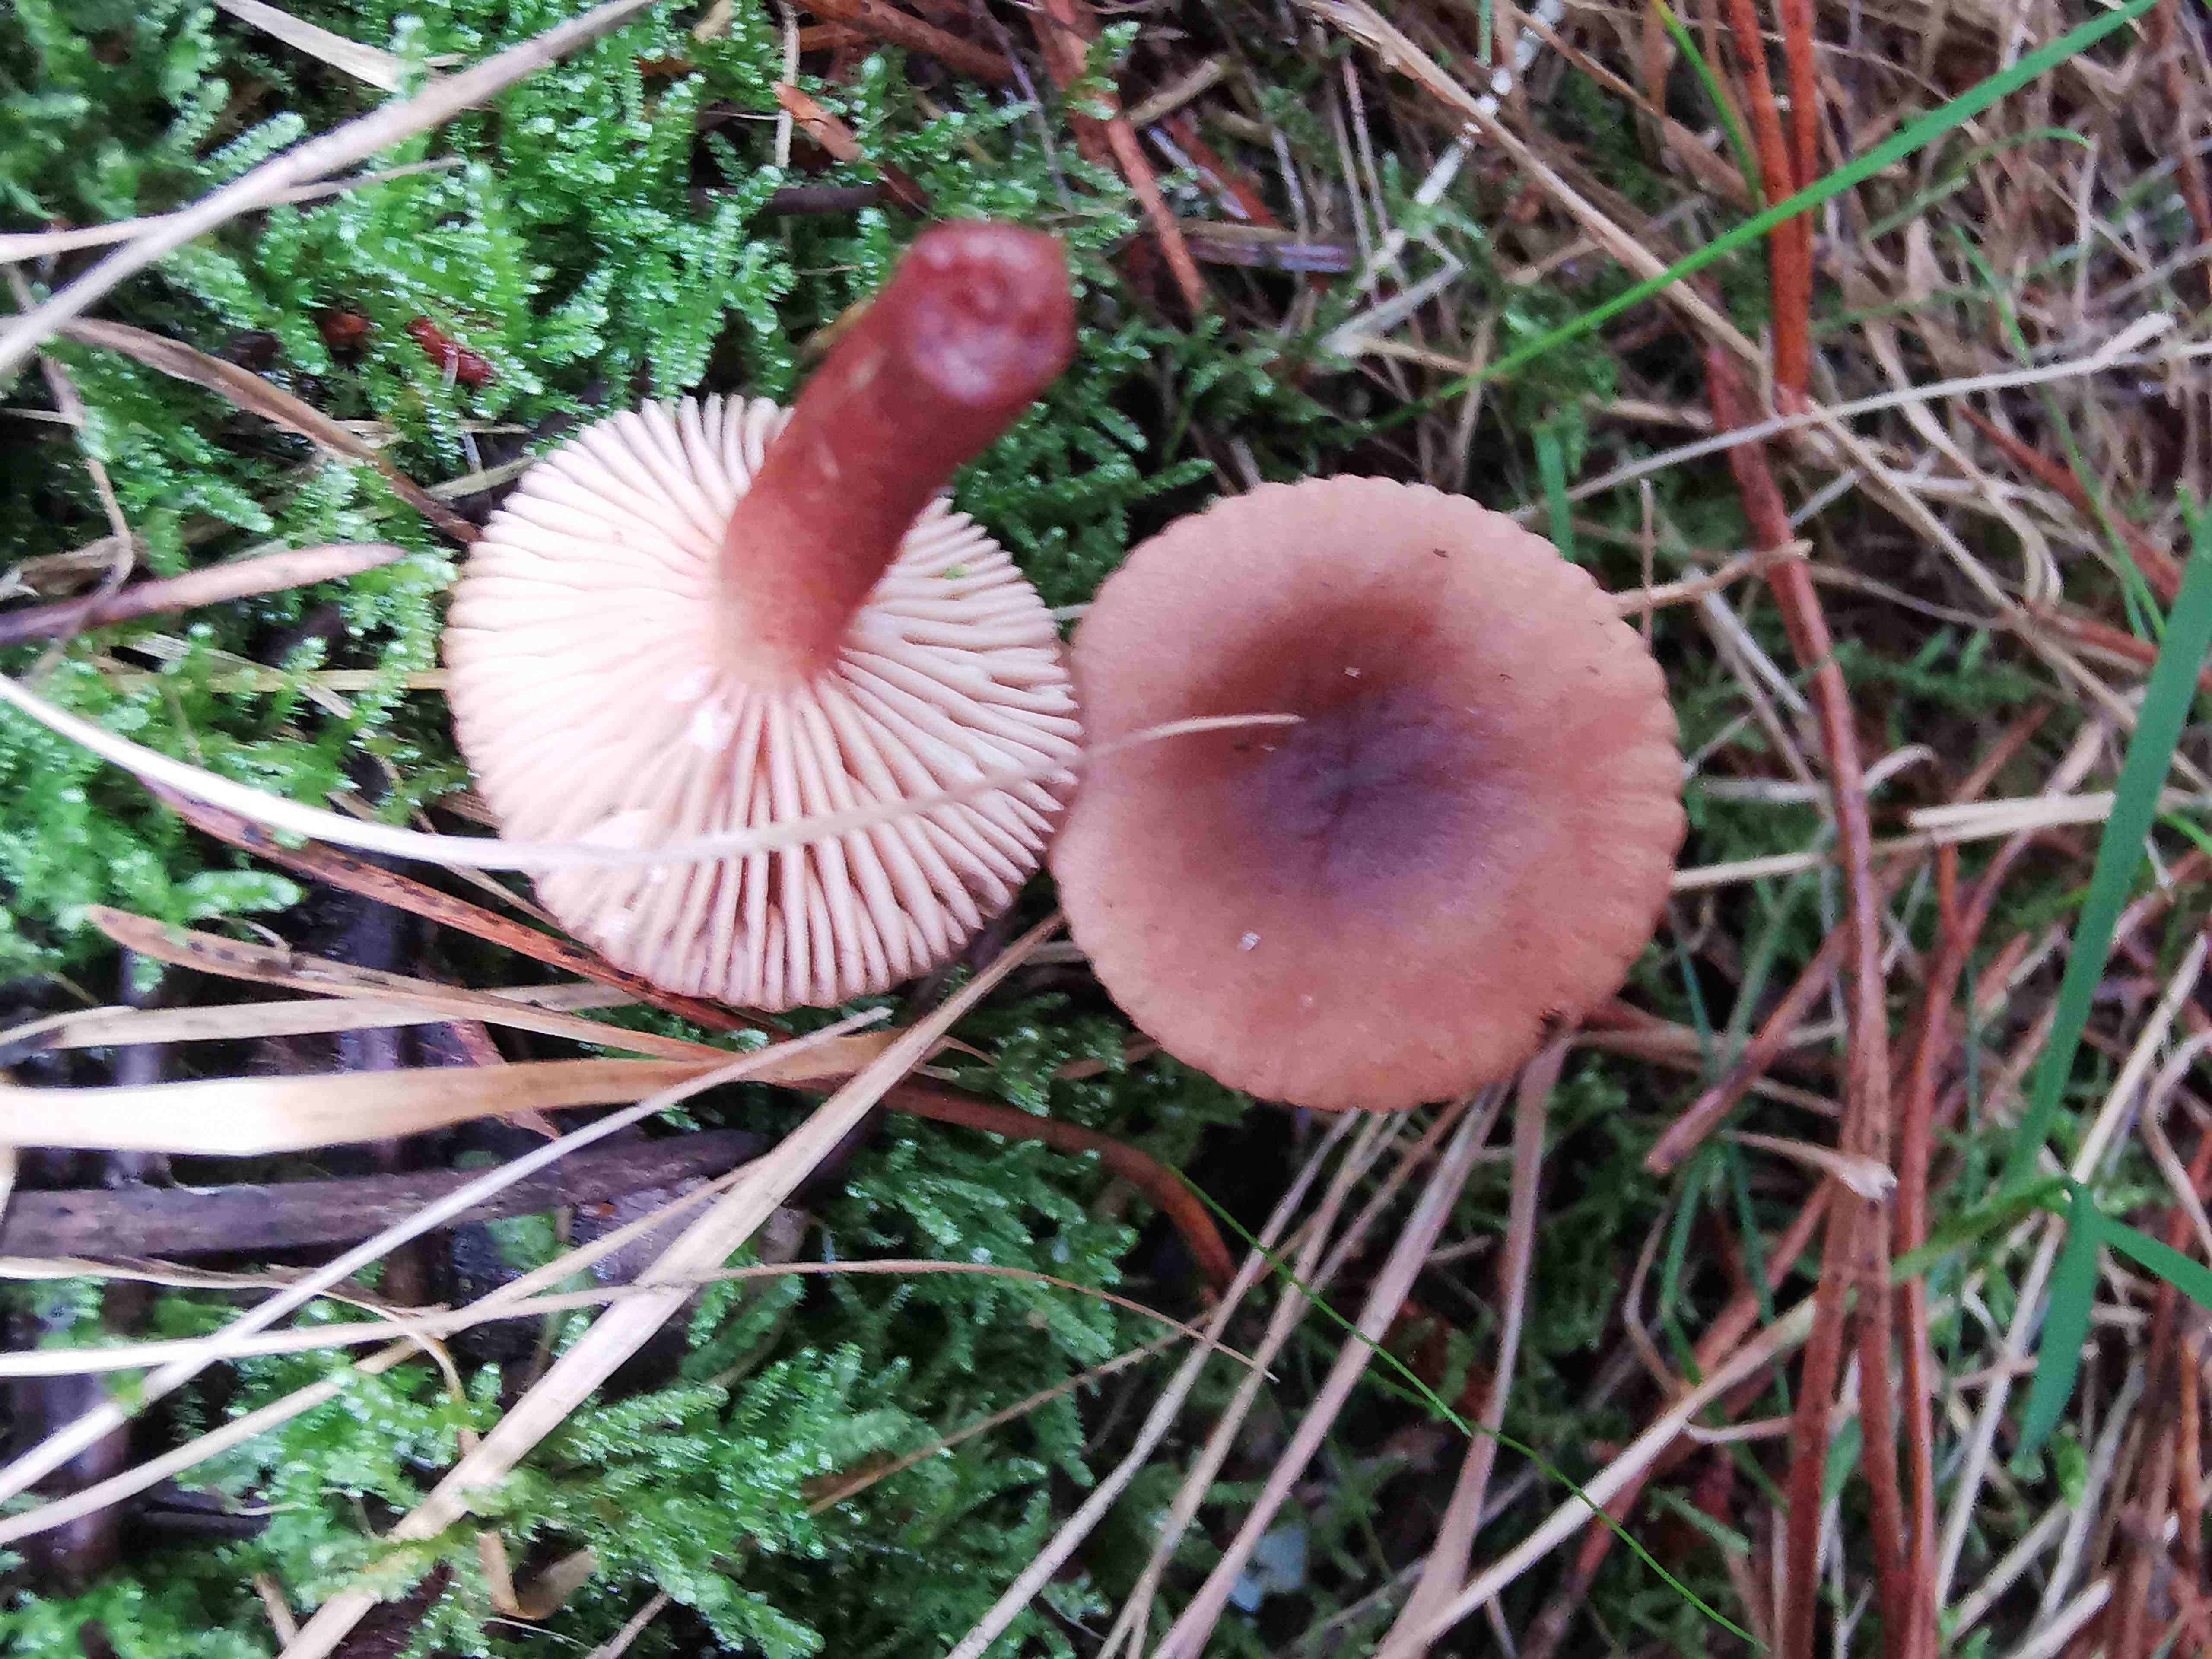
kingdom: Fungi
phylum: Basidiomycota
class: Agaricomycetes
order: Russulales
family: Russulaceae
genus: Lactarius
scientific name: Lactarius hepaticus
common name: leverbrun mælkehat
